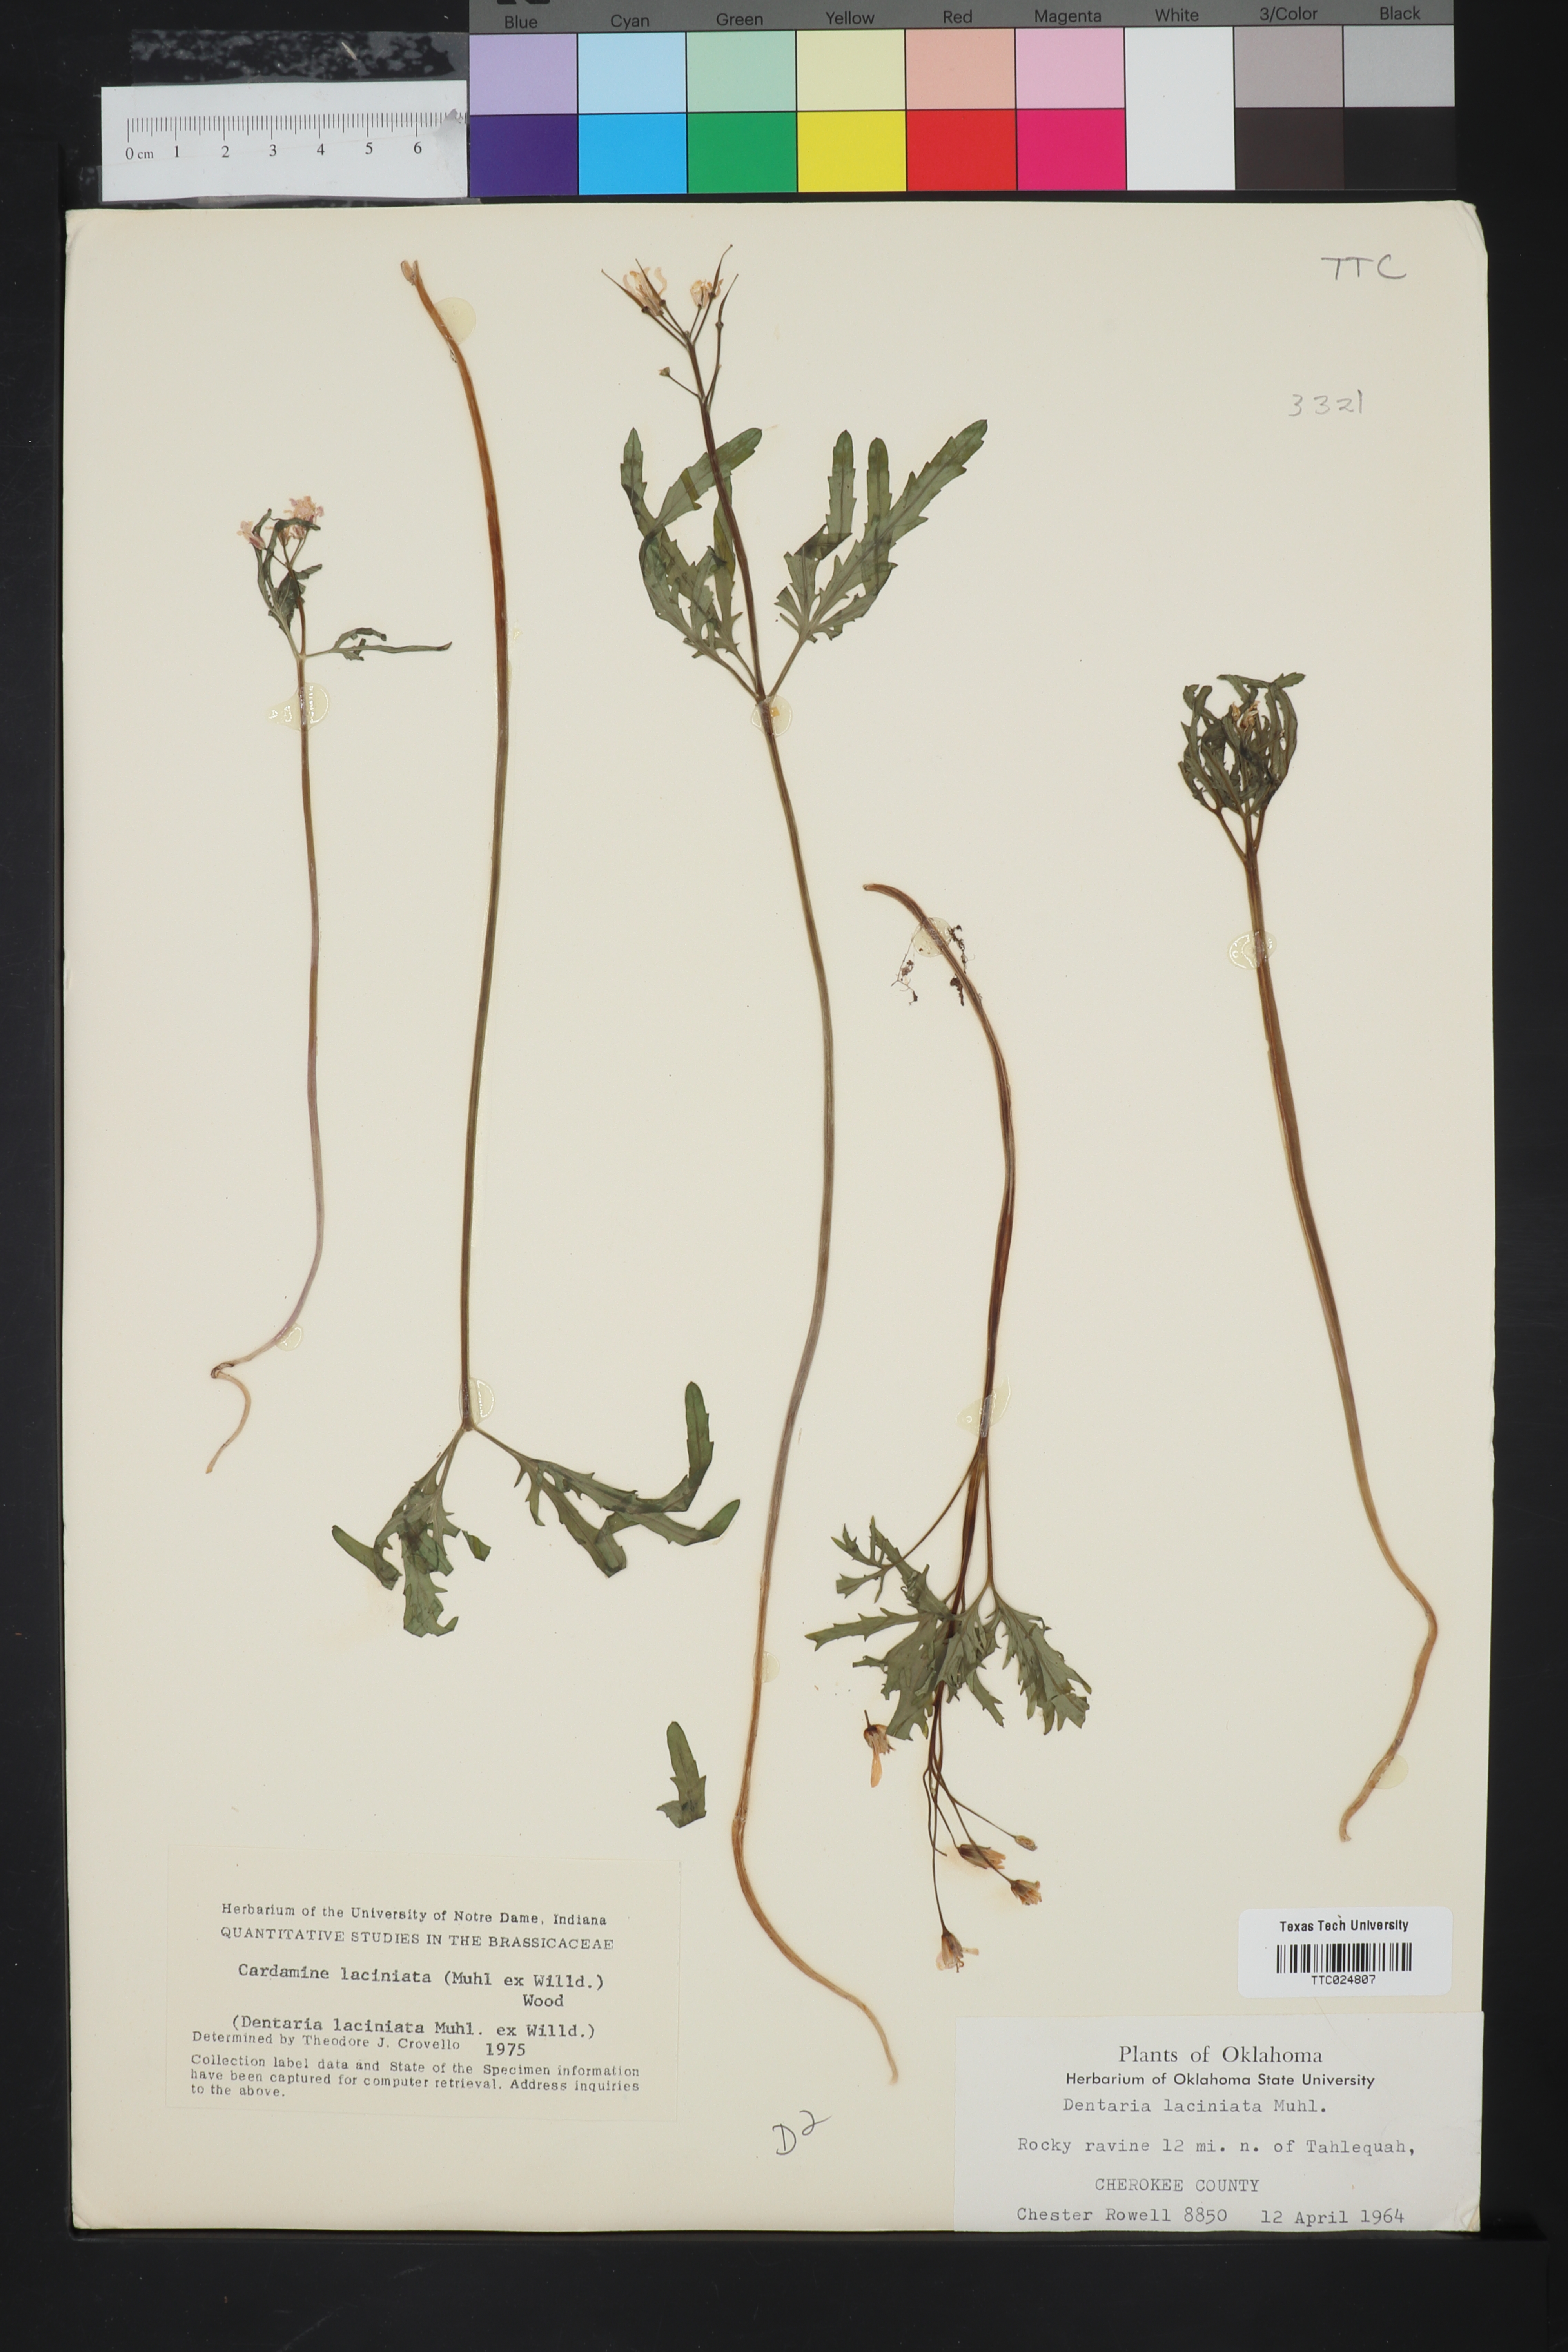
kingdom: Plantae
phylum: Tracheophyta
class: Magnoliopsida
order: Brassicales
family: Brassicaceae
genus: Rorippa
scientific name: Rorippa laciniata
